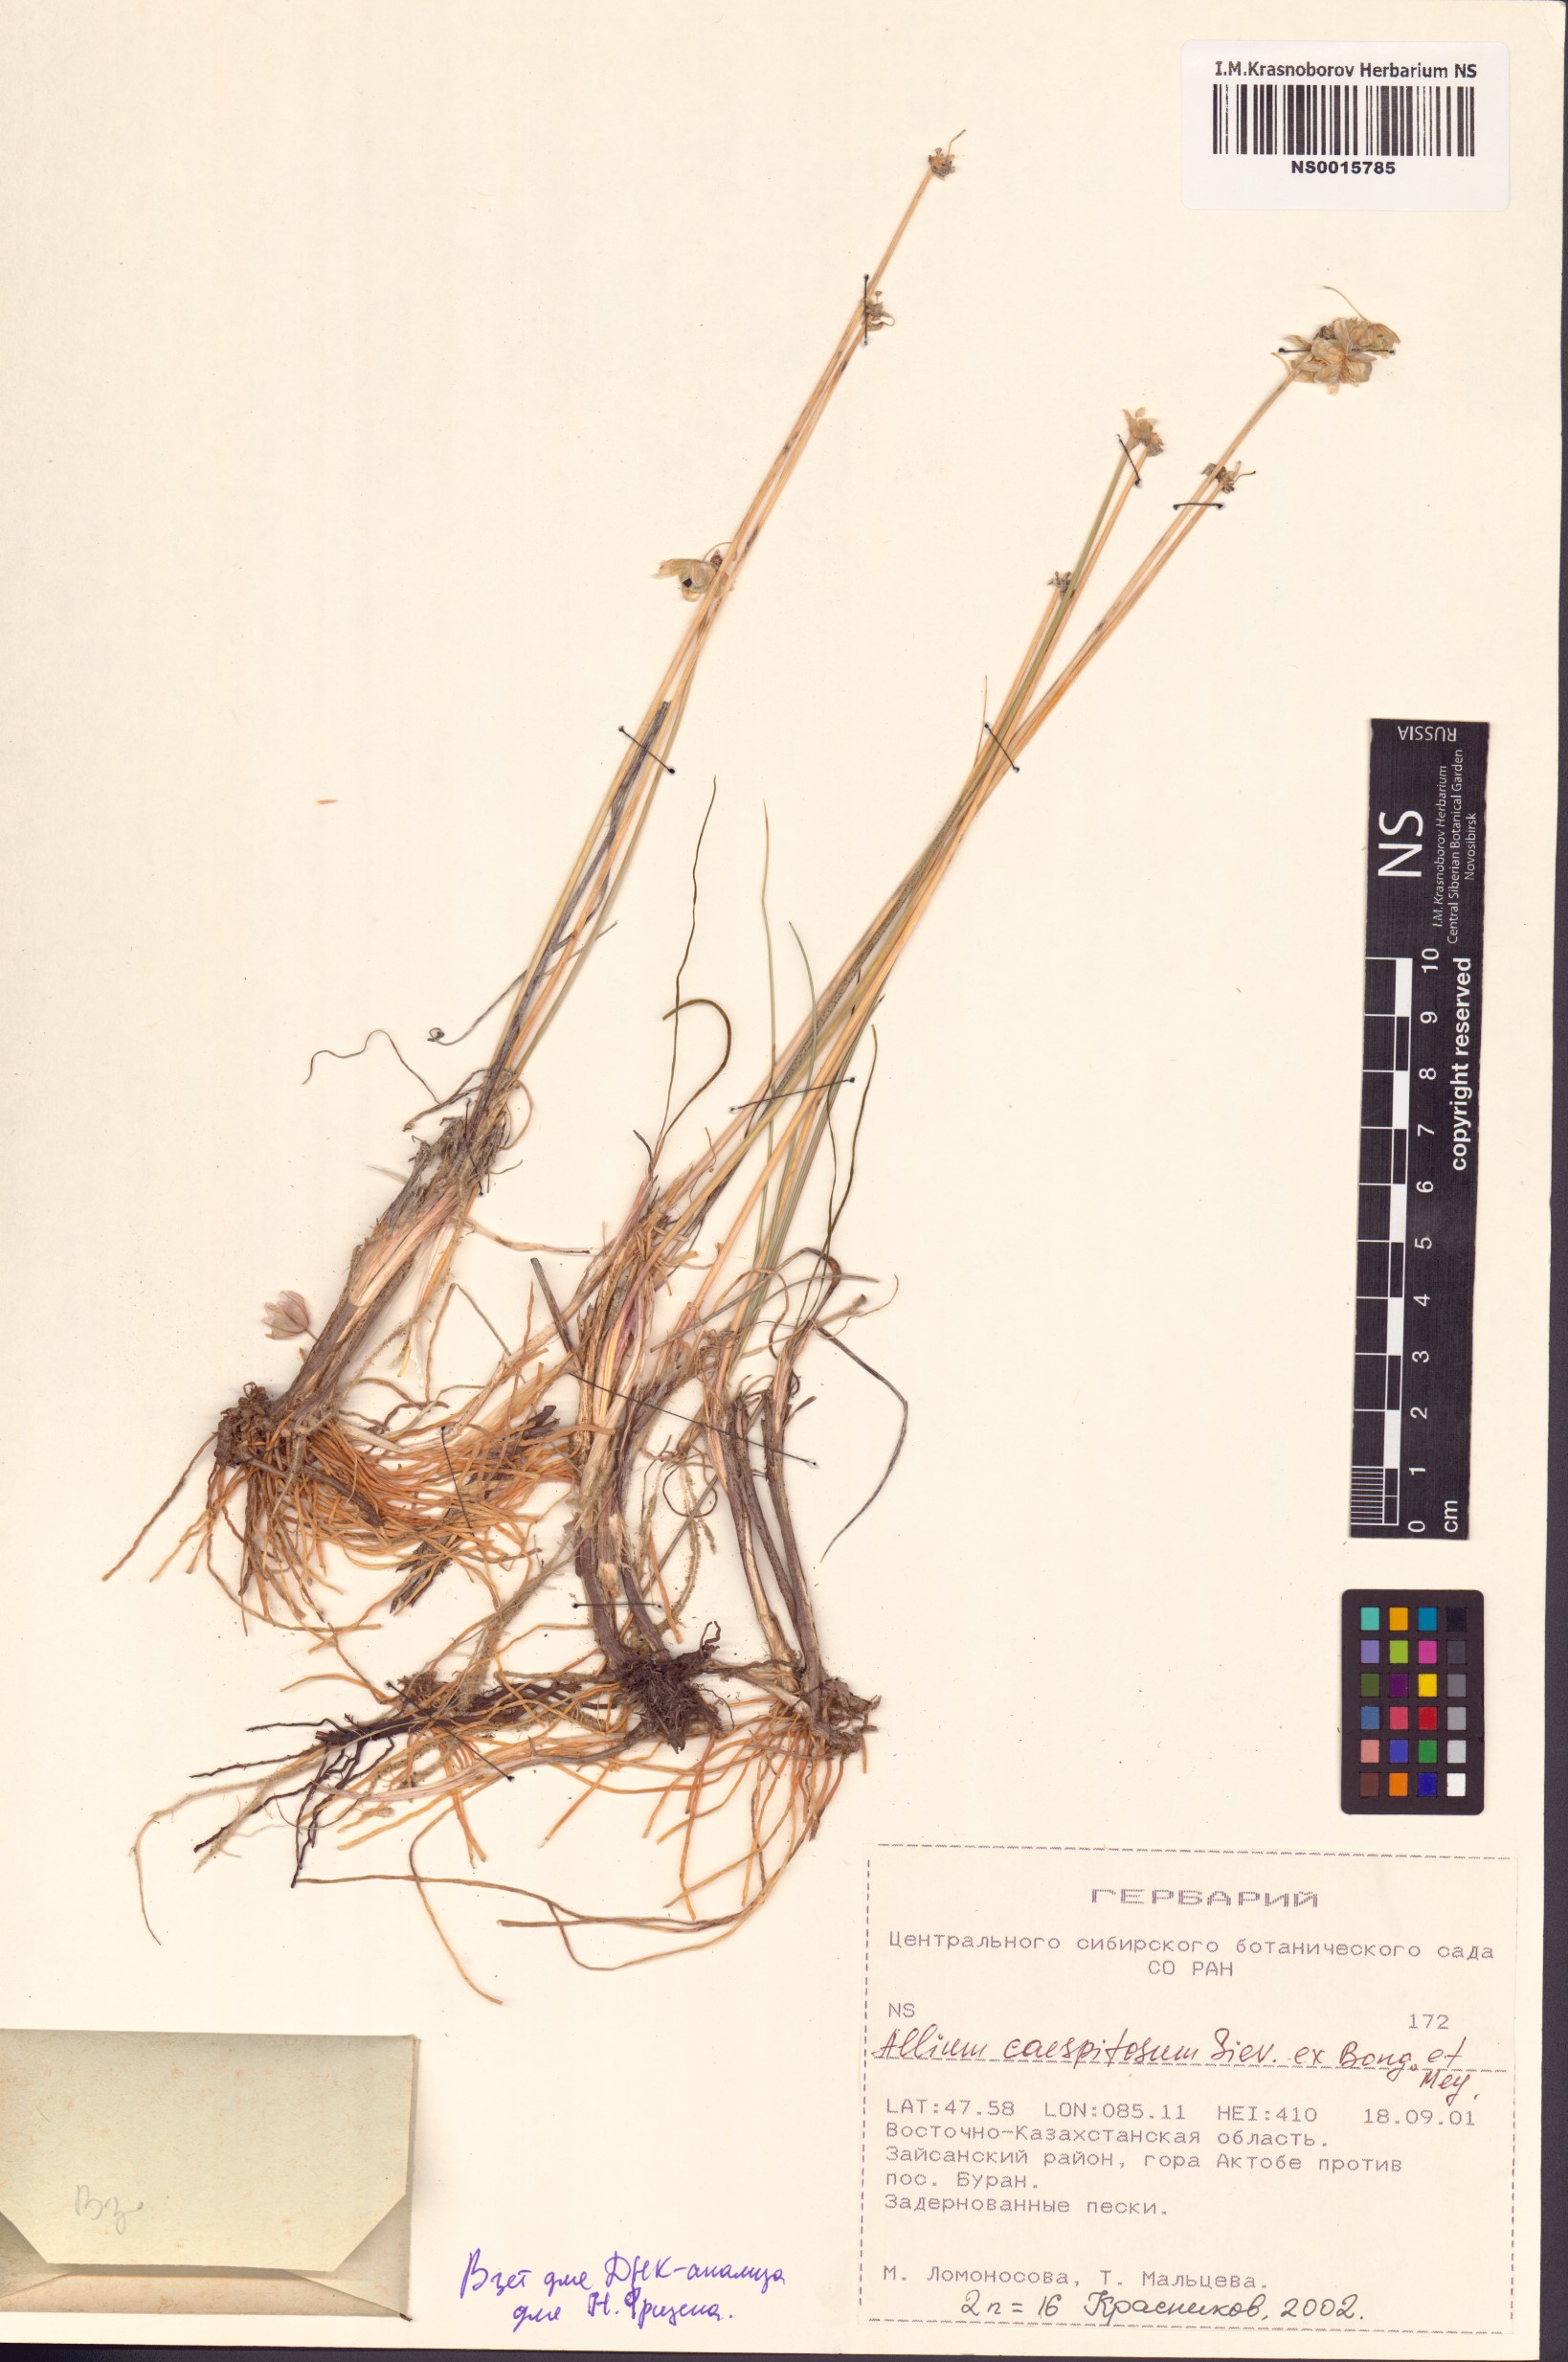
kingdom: Plantae
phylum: Tracheophyta
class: Liliopsida
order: Asparagales
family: Amaryllidaceae
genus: Allium
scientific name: Allium caespitosum
